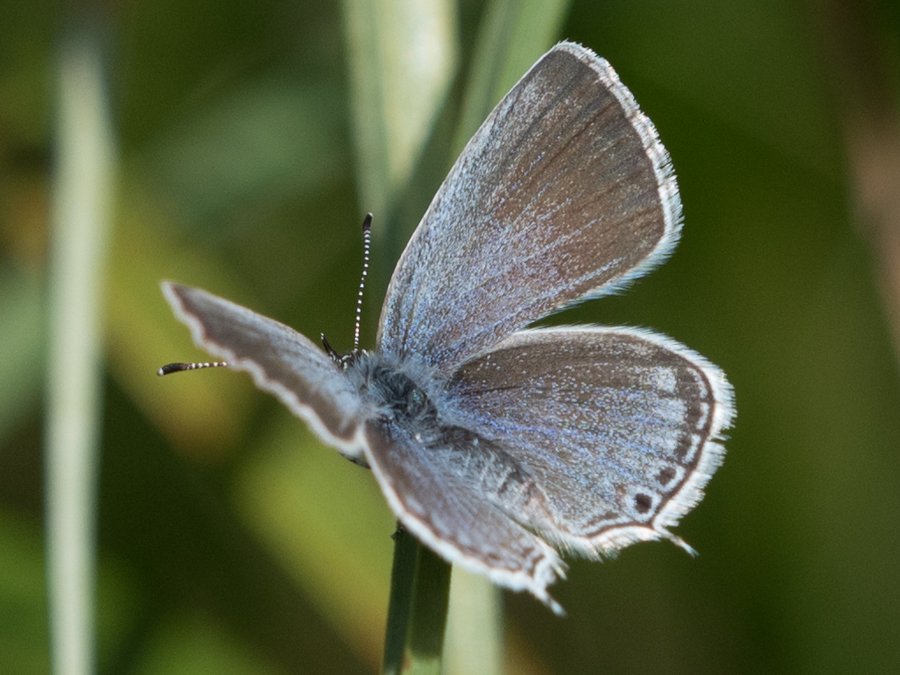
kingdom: Animalia
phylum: Arthropoda
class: Insecta
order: Lepidoptera
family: Lycaenidae
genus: Elkalyce
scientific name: Elkalyce amyntula
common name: Western Tailed-Blue
